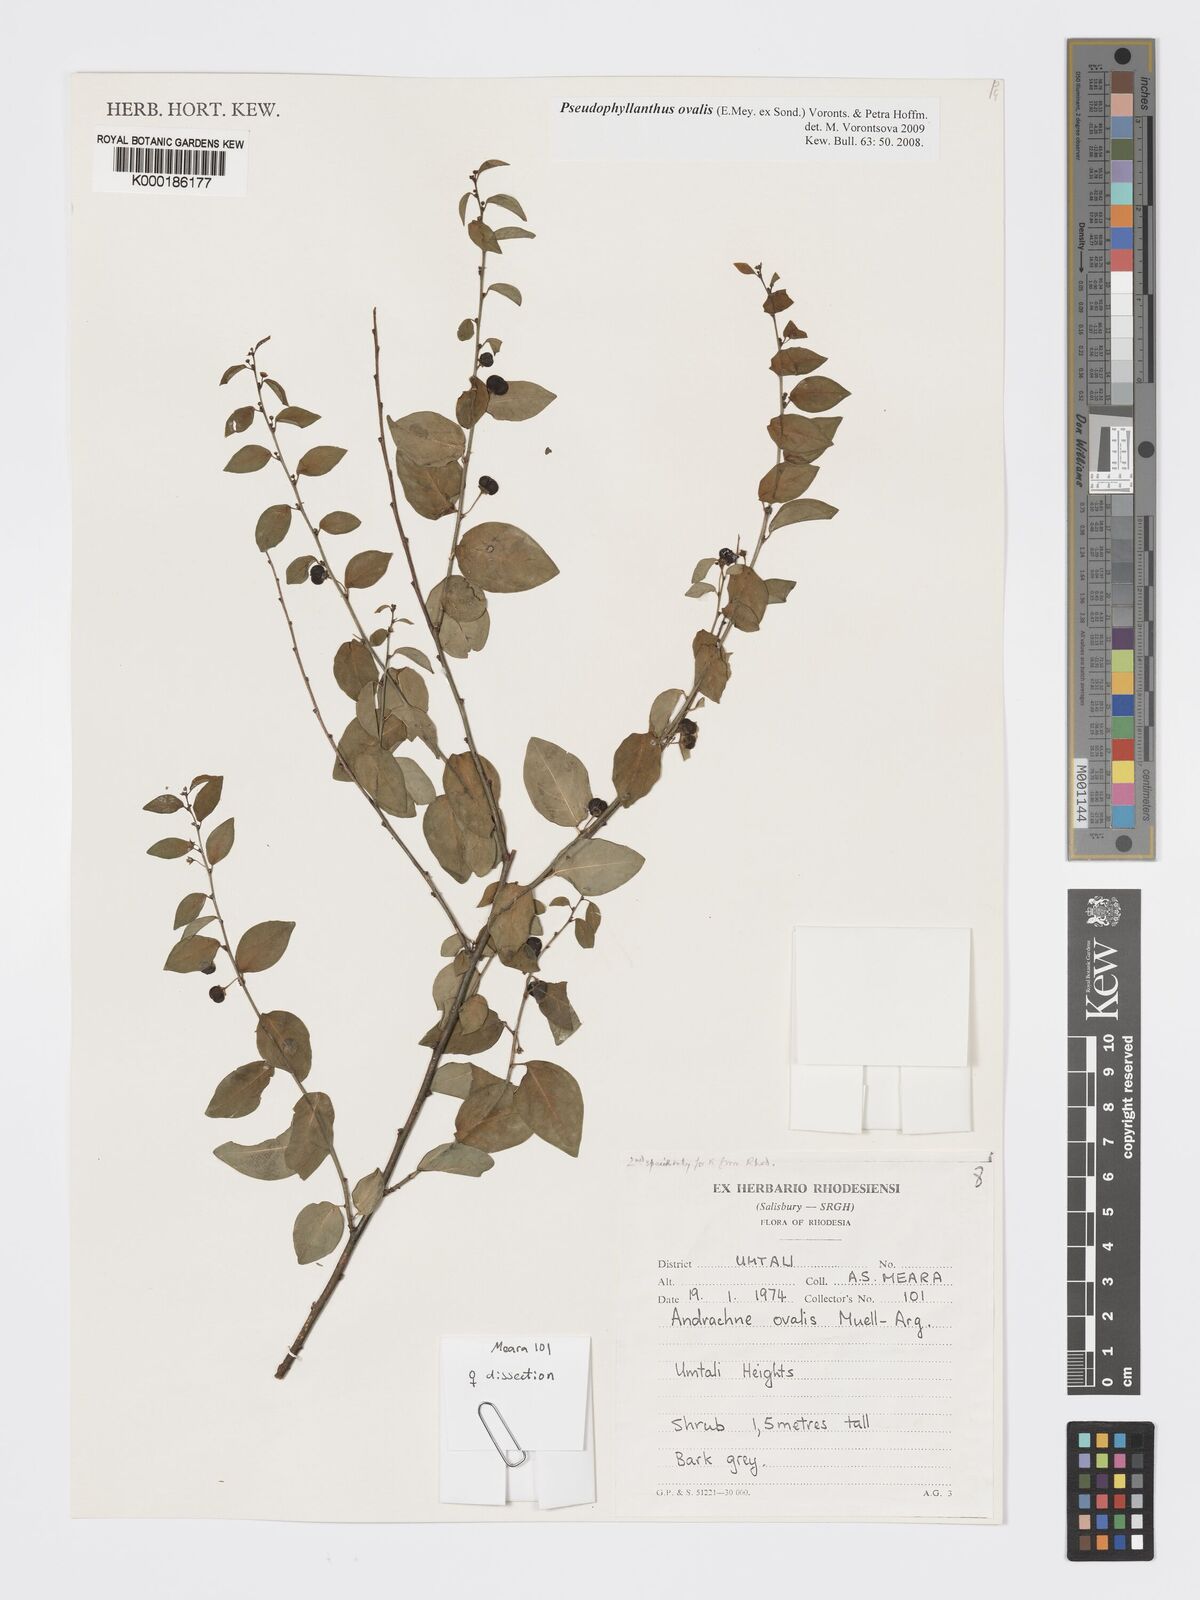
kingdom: Plantae
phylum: Tracheophyta
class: Magnoliopsida
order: Malpighiales
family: Phyllanthaceae
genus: Pseudophyllanthus
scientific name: Pseudophyllanthus ovalis
